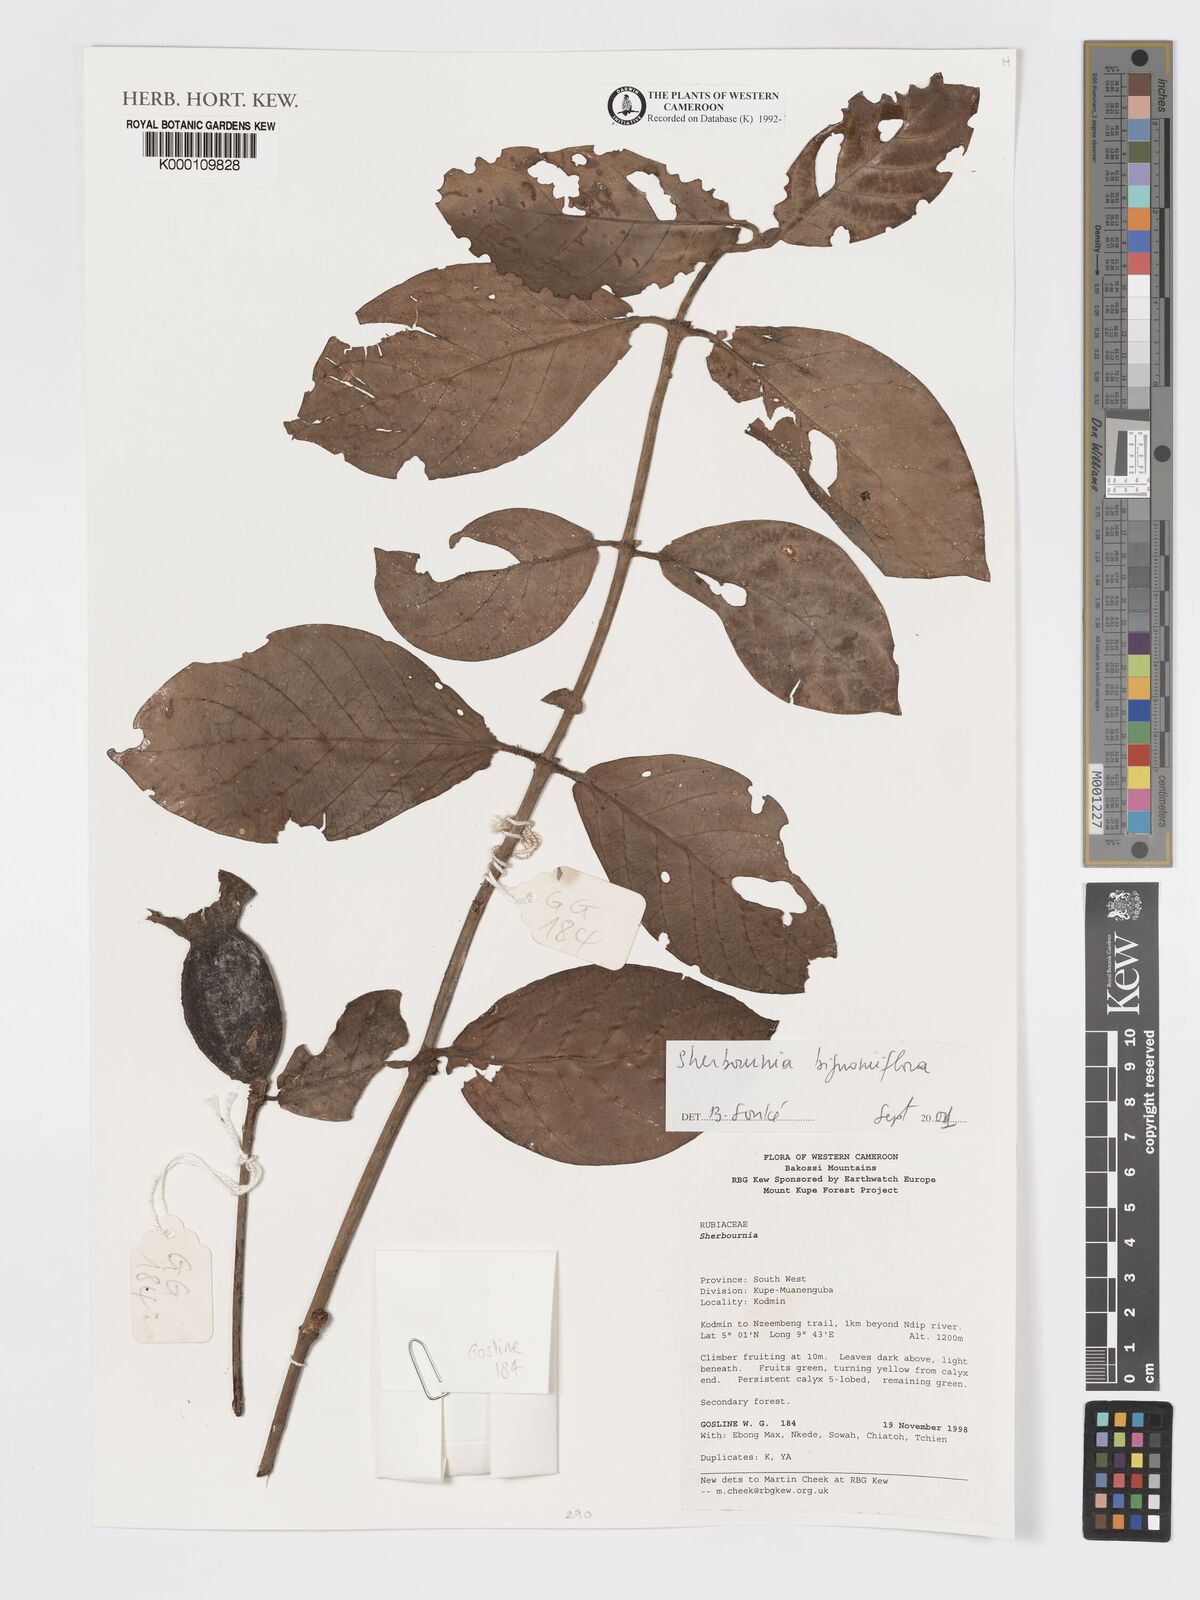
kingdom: Plantae
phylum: Tracheophyta
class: Magnoliopsida
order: Gentianales
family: Rubiaceae
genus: Sherbournia
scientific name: Sherbournia bignoniiflora
